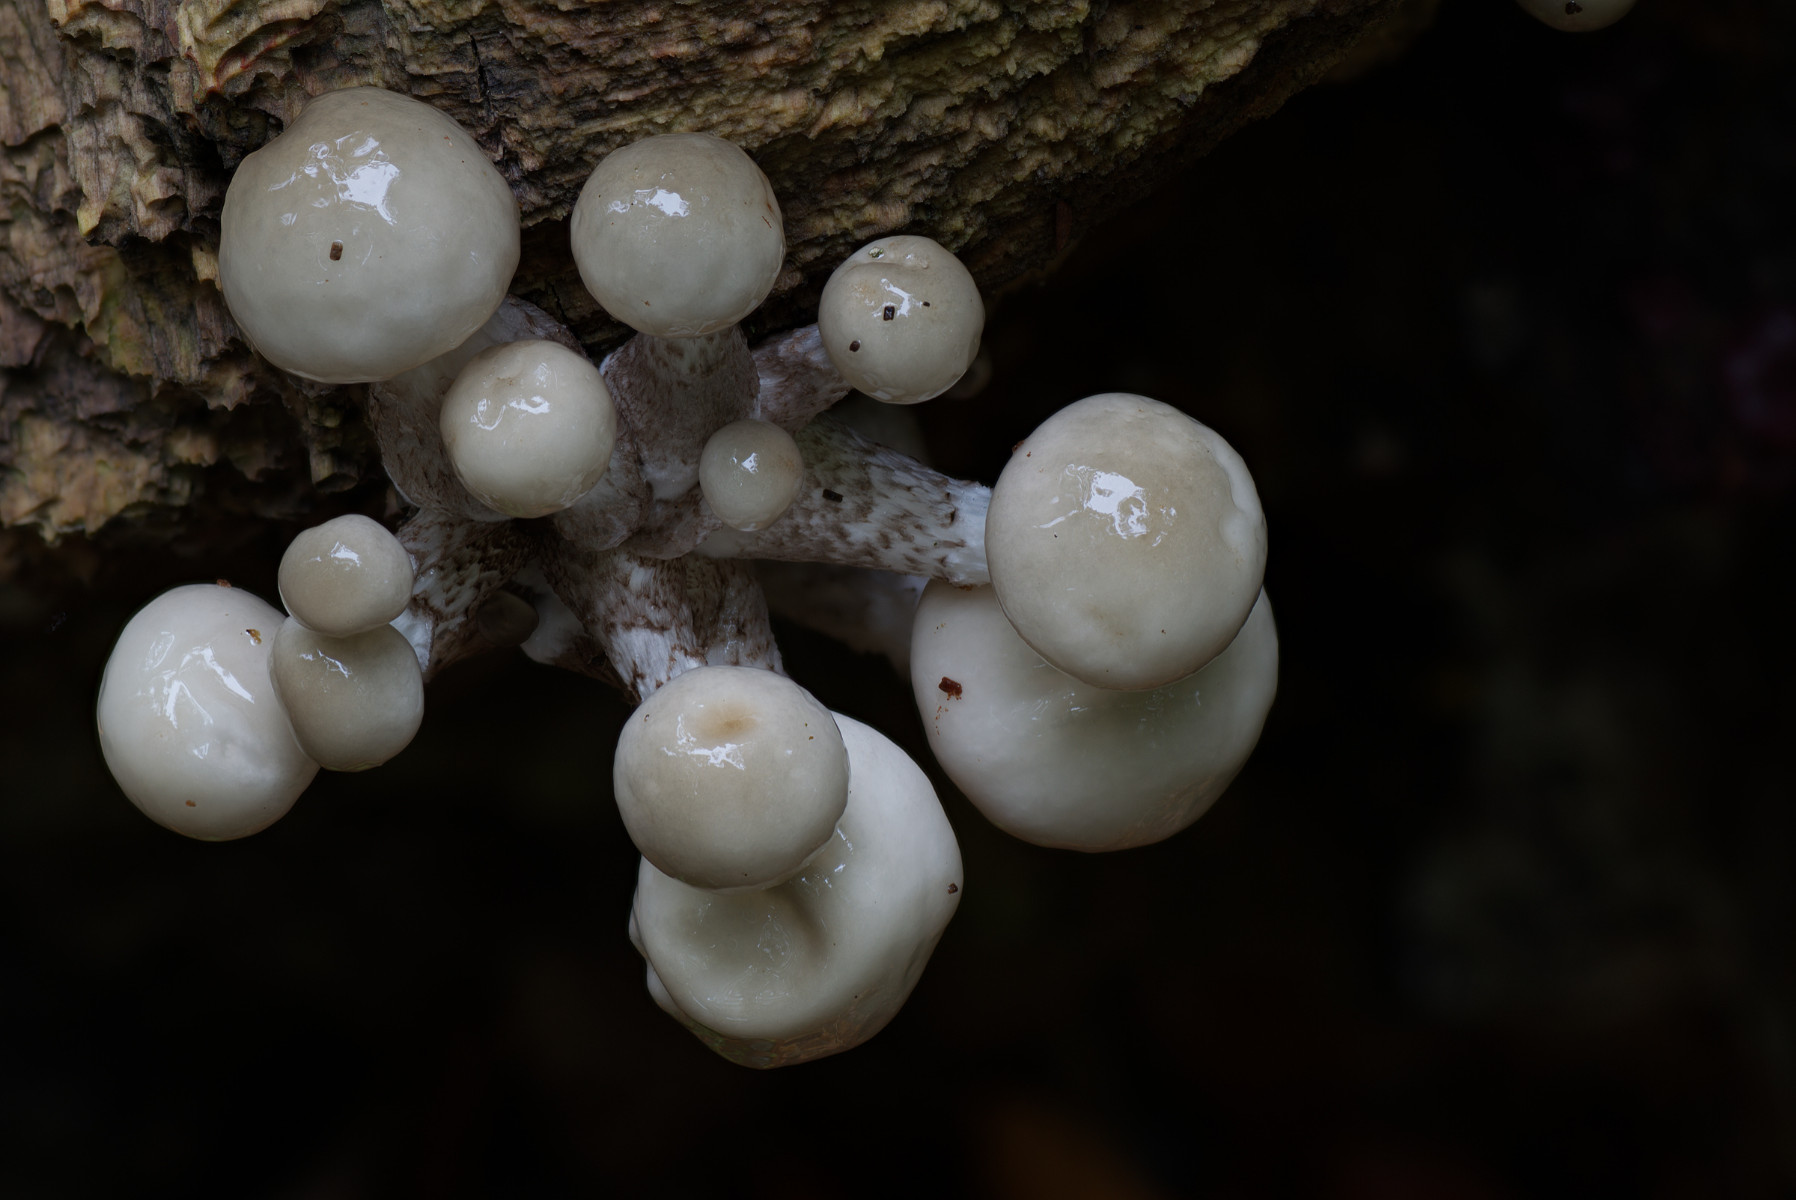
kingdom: Fungi
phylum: Basidiomycota
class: Agaricomycetes
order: Agaricales
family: Physalacriaceae
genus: Mucidula
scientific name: Mucidula mucida
